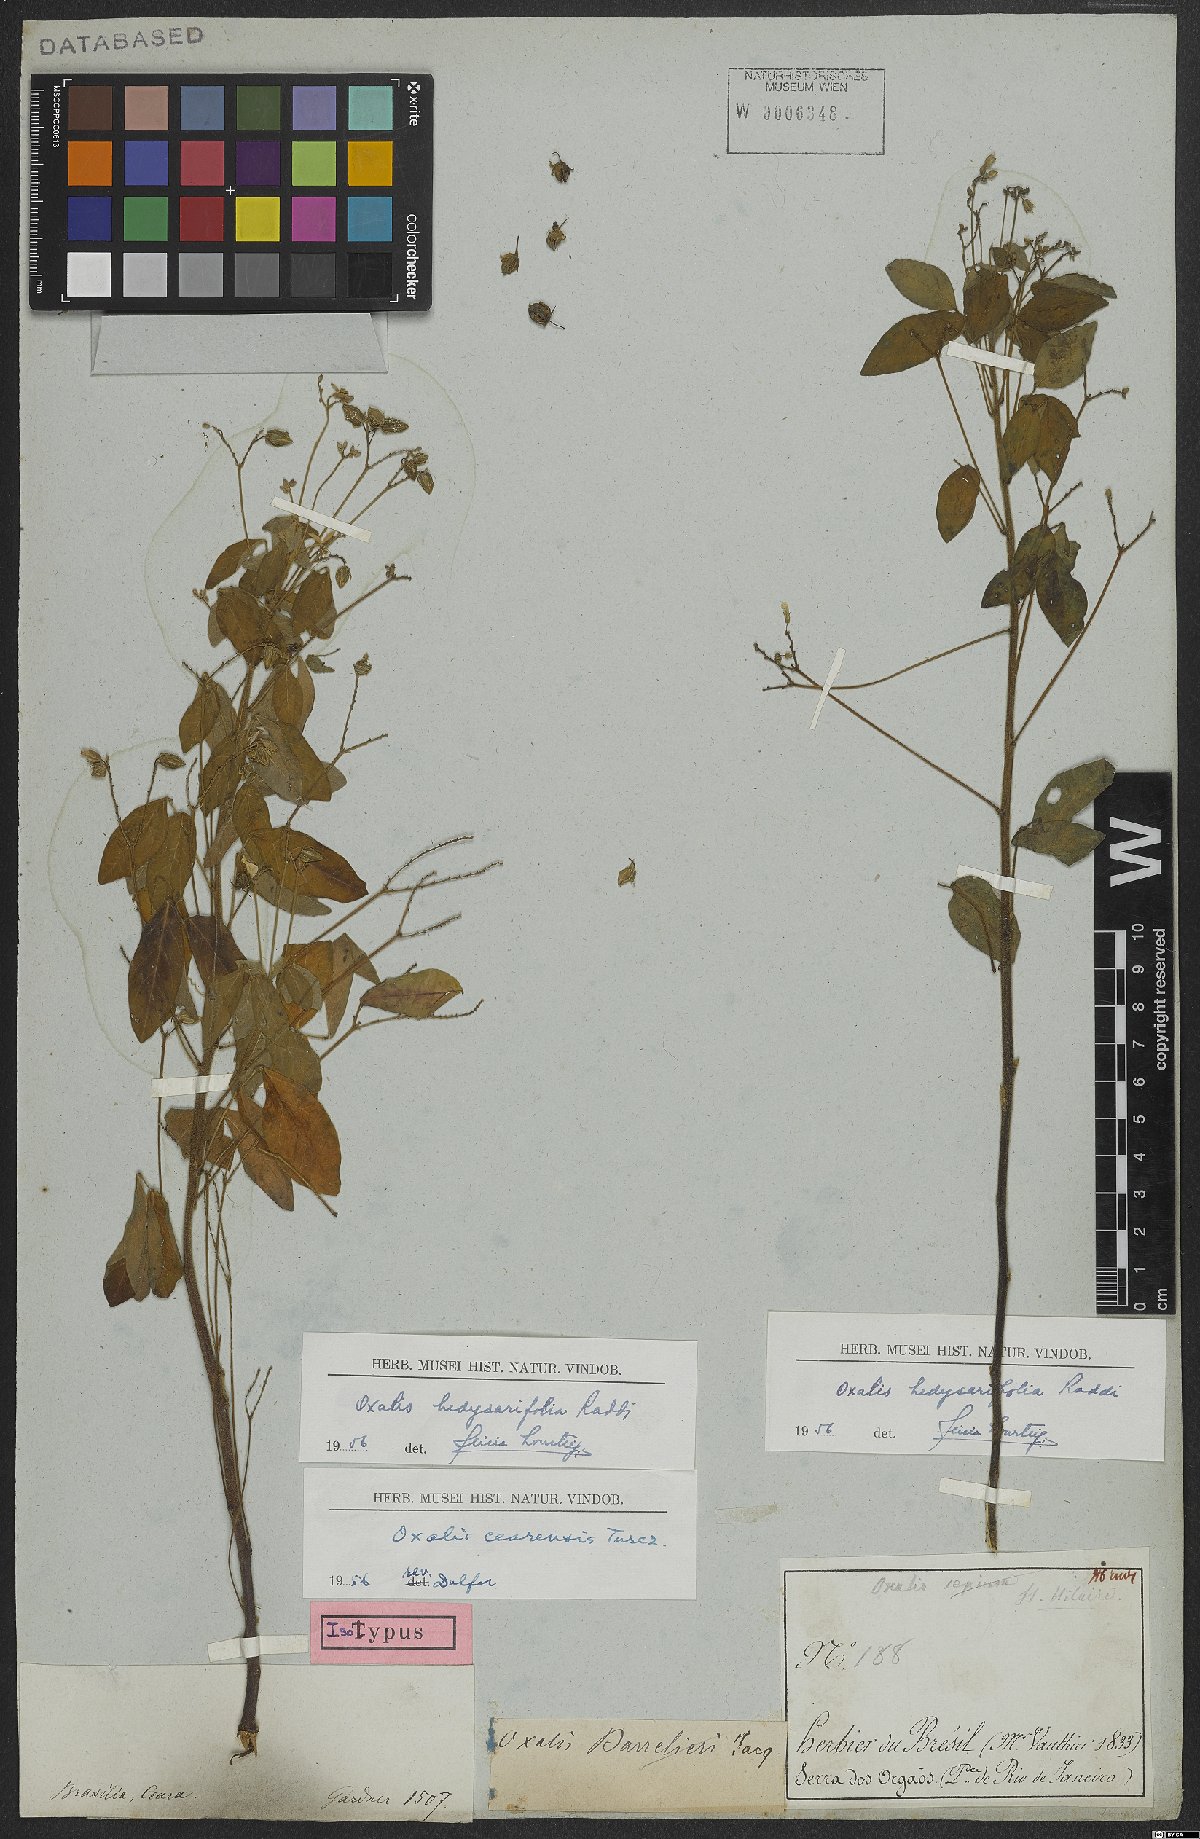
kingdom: Plantae
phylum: Tracheophyta
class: Magnoliopsida
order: Oxalidales
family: Oxalidaceae
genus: Oxalis
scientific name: Oxalis frutescens
